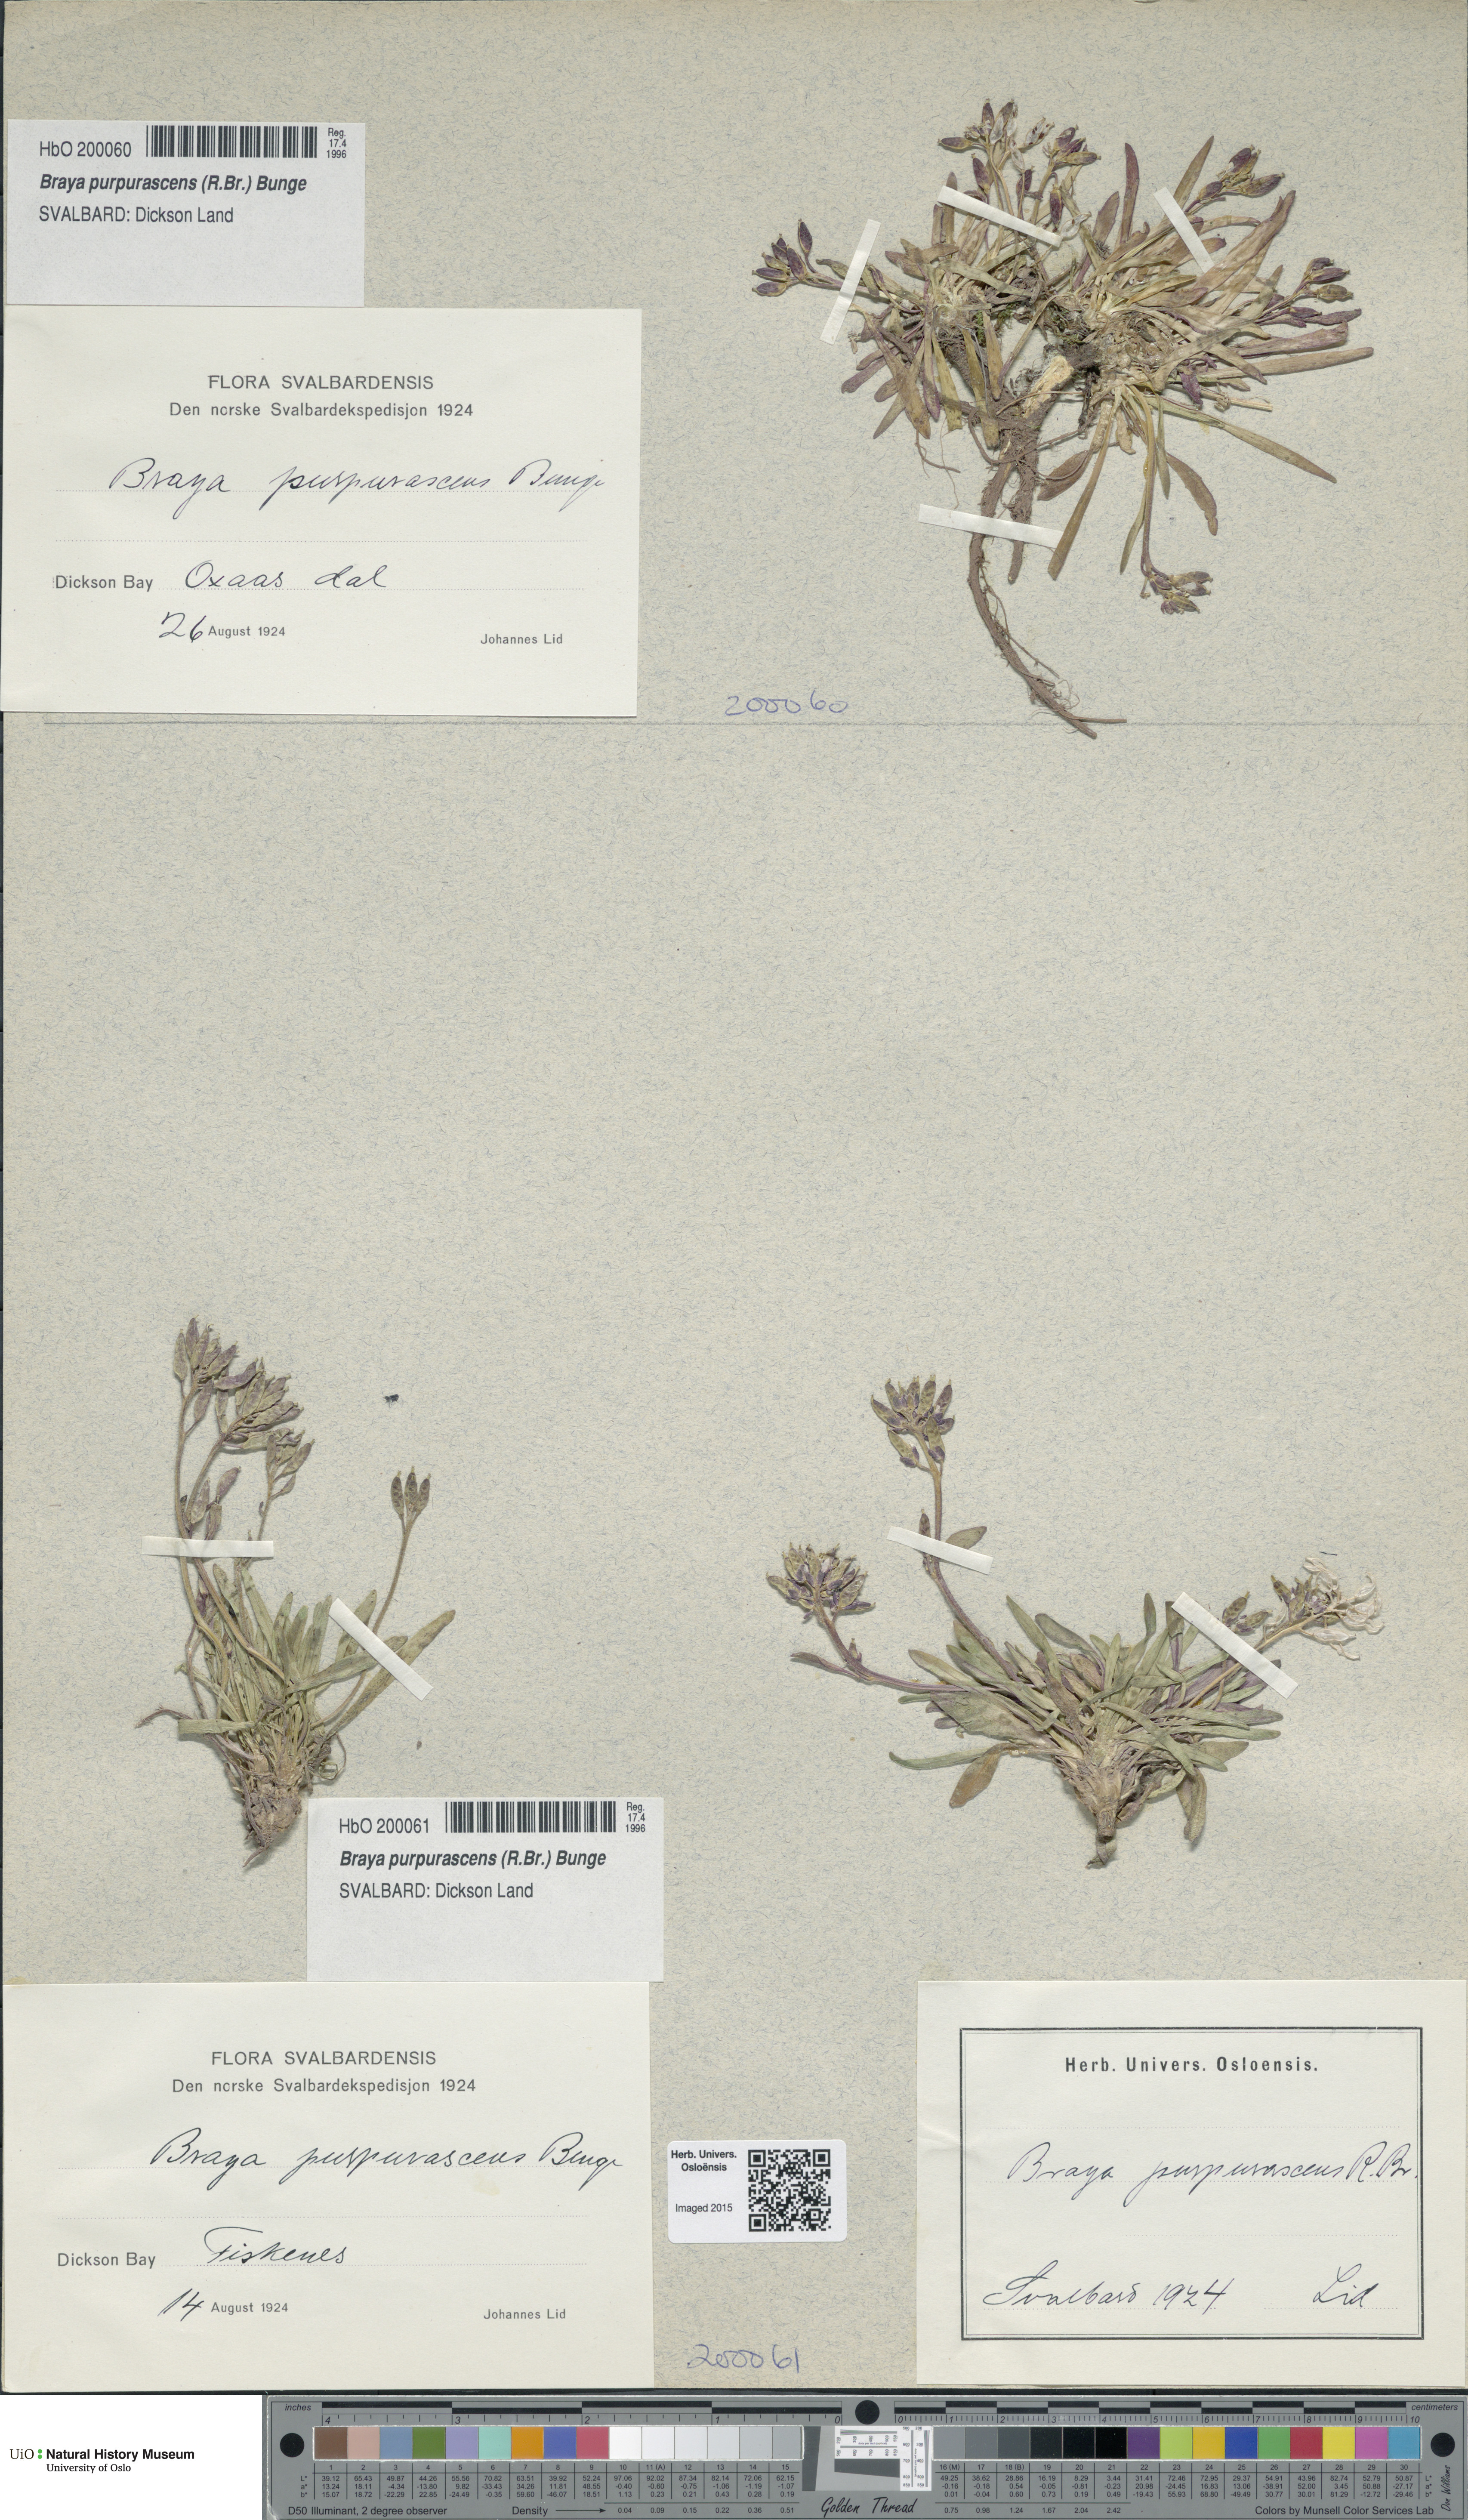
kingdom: Plantae
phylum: Tracheophyta
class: Magnoliopsida
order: Brassicales
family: Brassicaceae
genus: Braya
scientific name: Braya purpurascens
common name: Alpine braya
